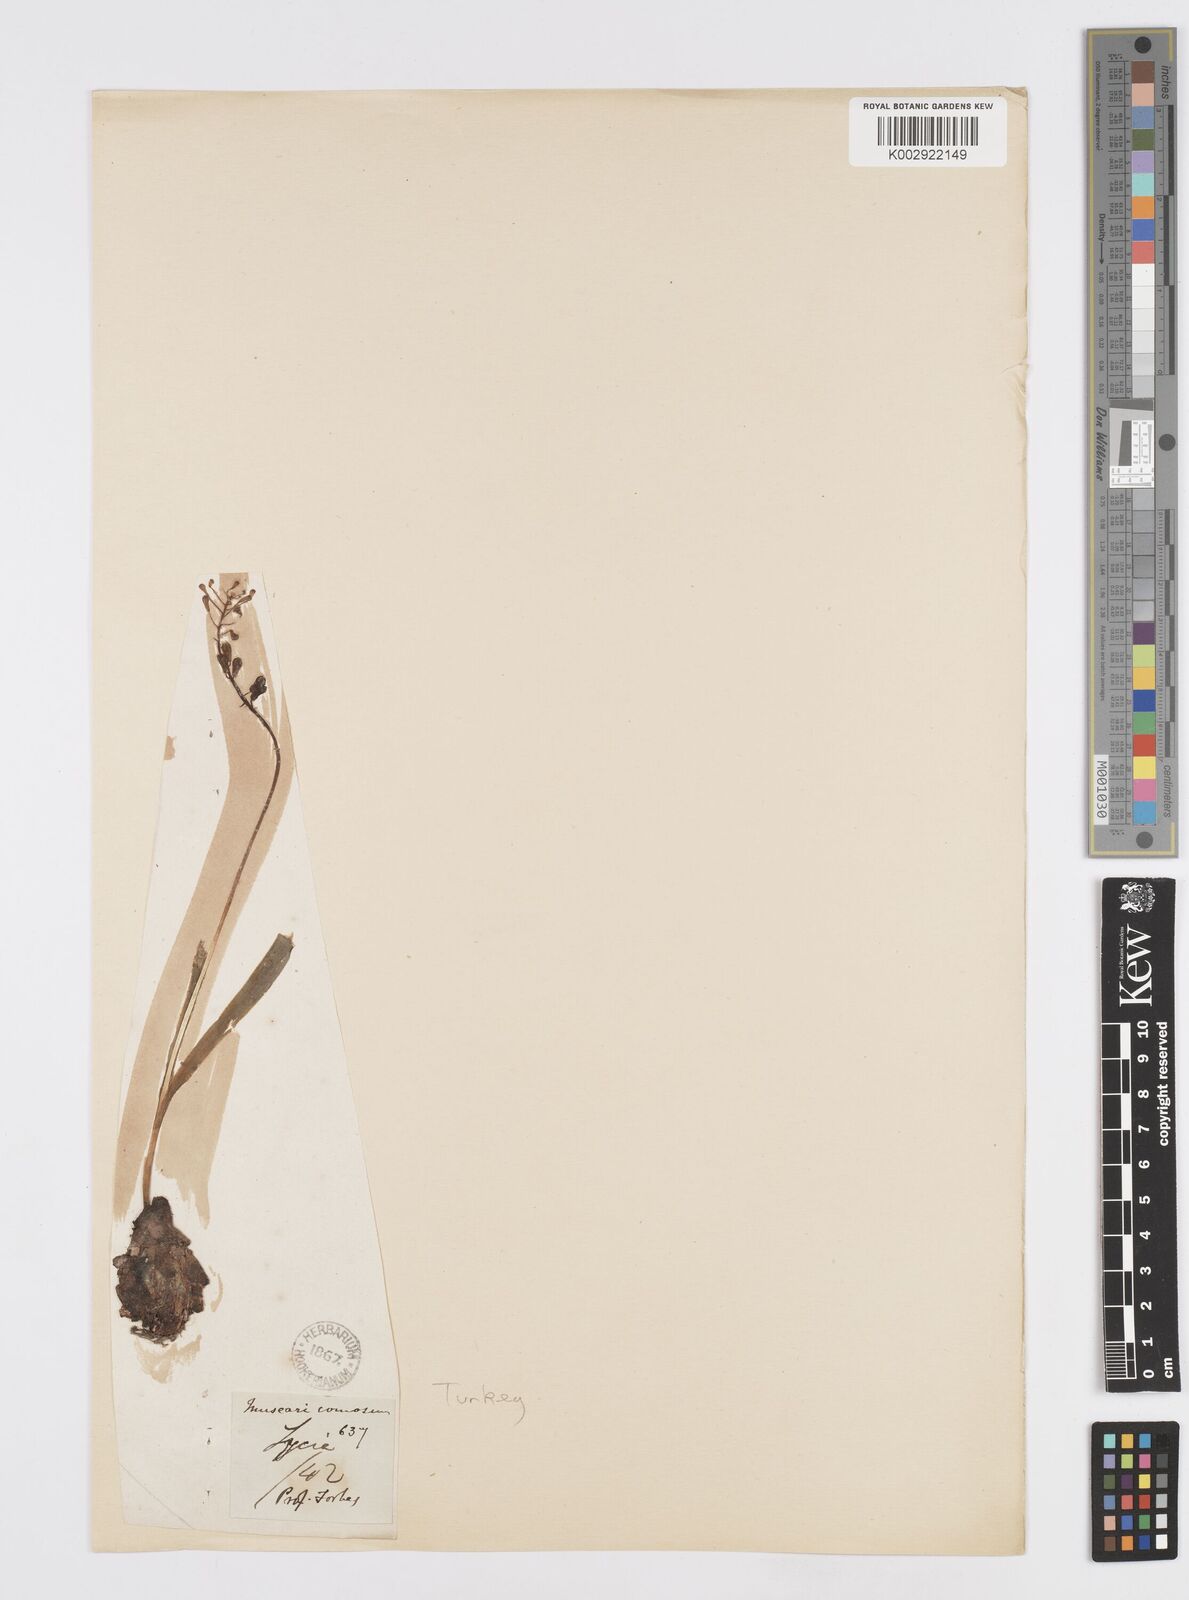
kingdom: Plantae
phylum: Tracheophyta
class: Liliopsida
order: Asparagales
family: Asparagaceae
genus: Muscari
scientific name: Muscari comosum
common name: Tassel hyacinth
